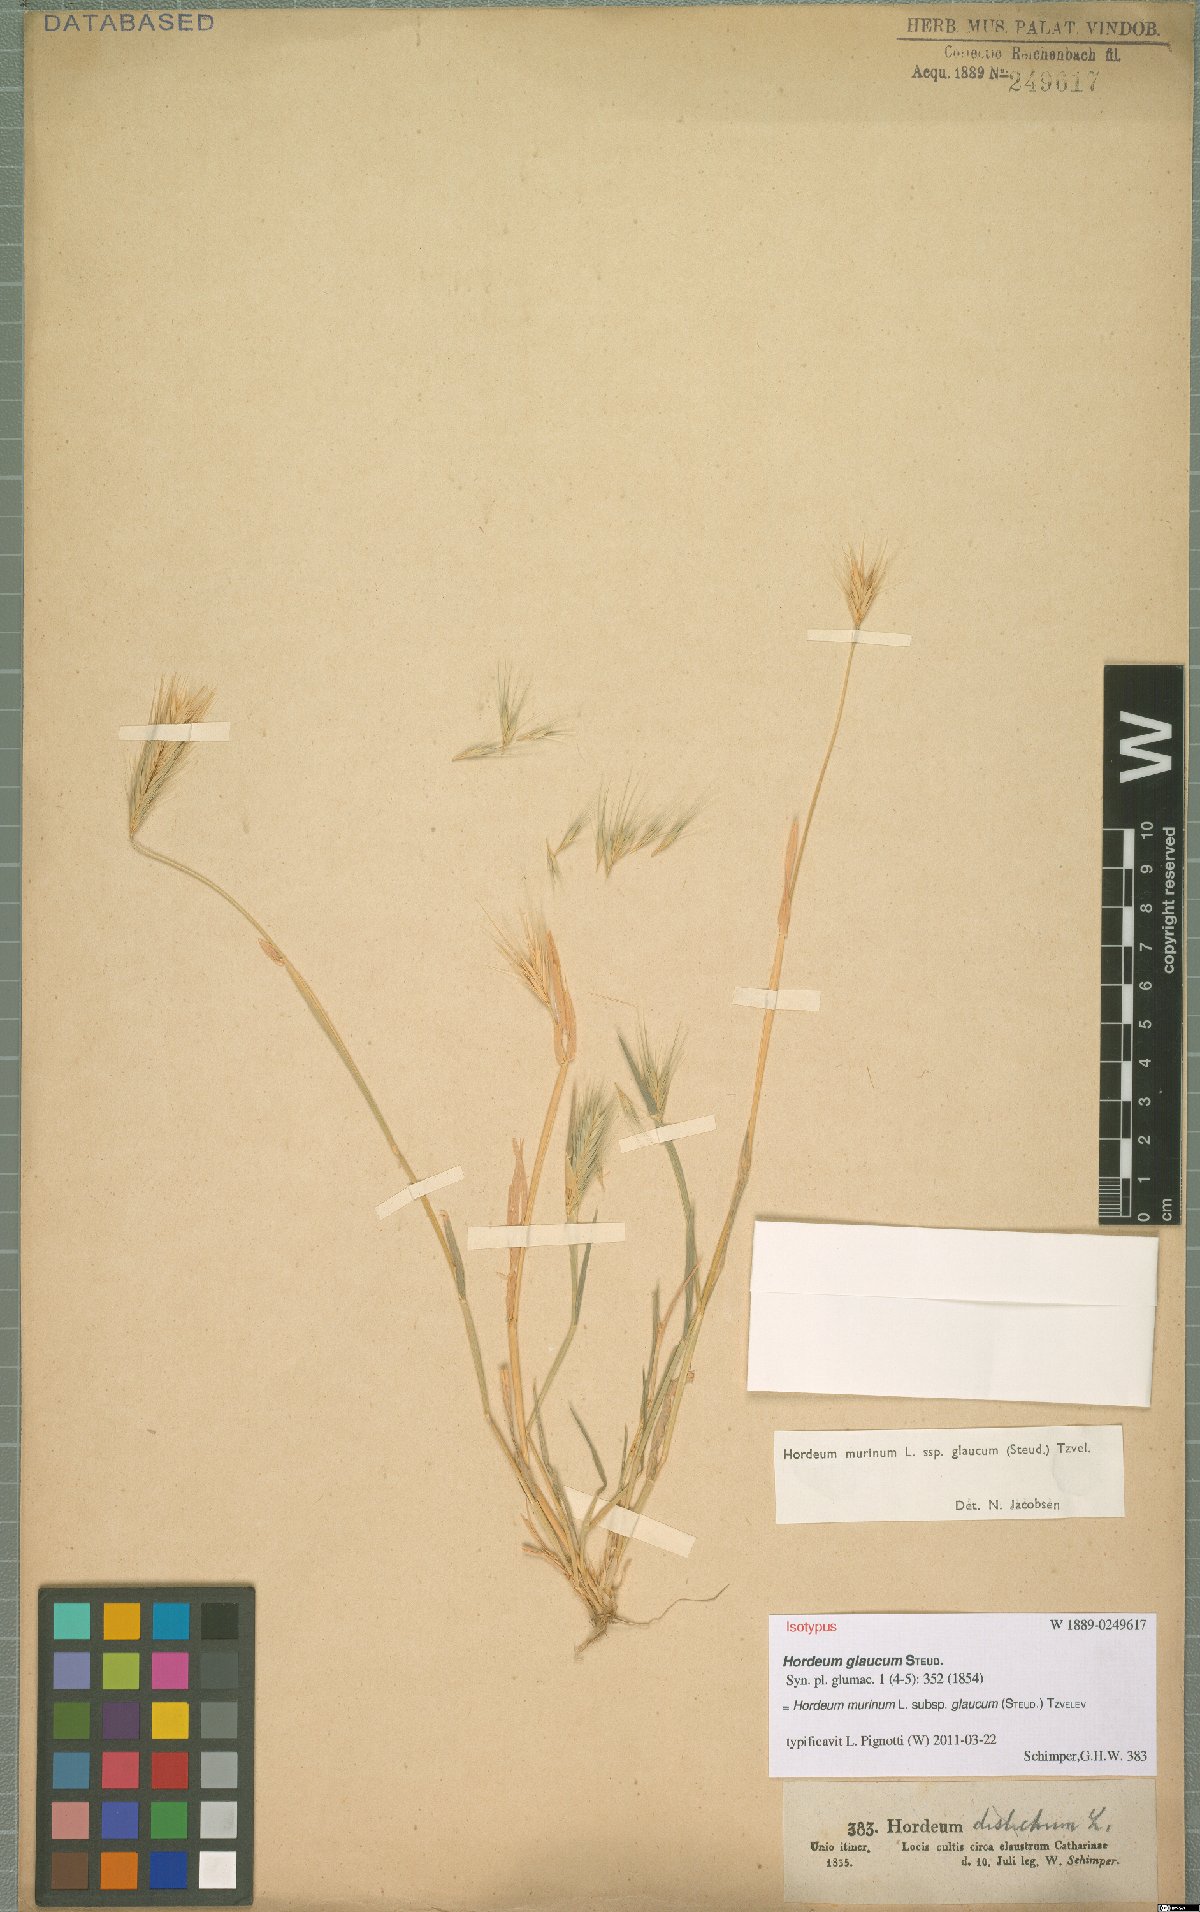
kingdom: Plantae
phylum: Tracheophyta
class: Liliopsida
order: Poales
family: Poaceae
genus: Hordeum
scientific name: Hordeum murinum
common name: Wall barley
